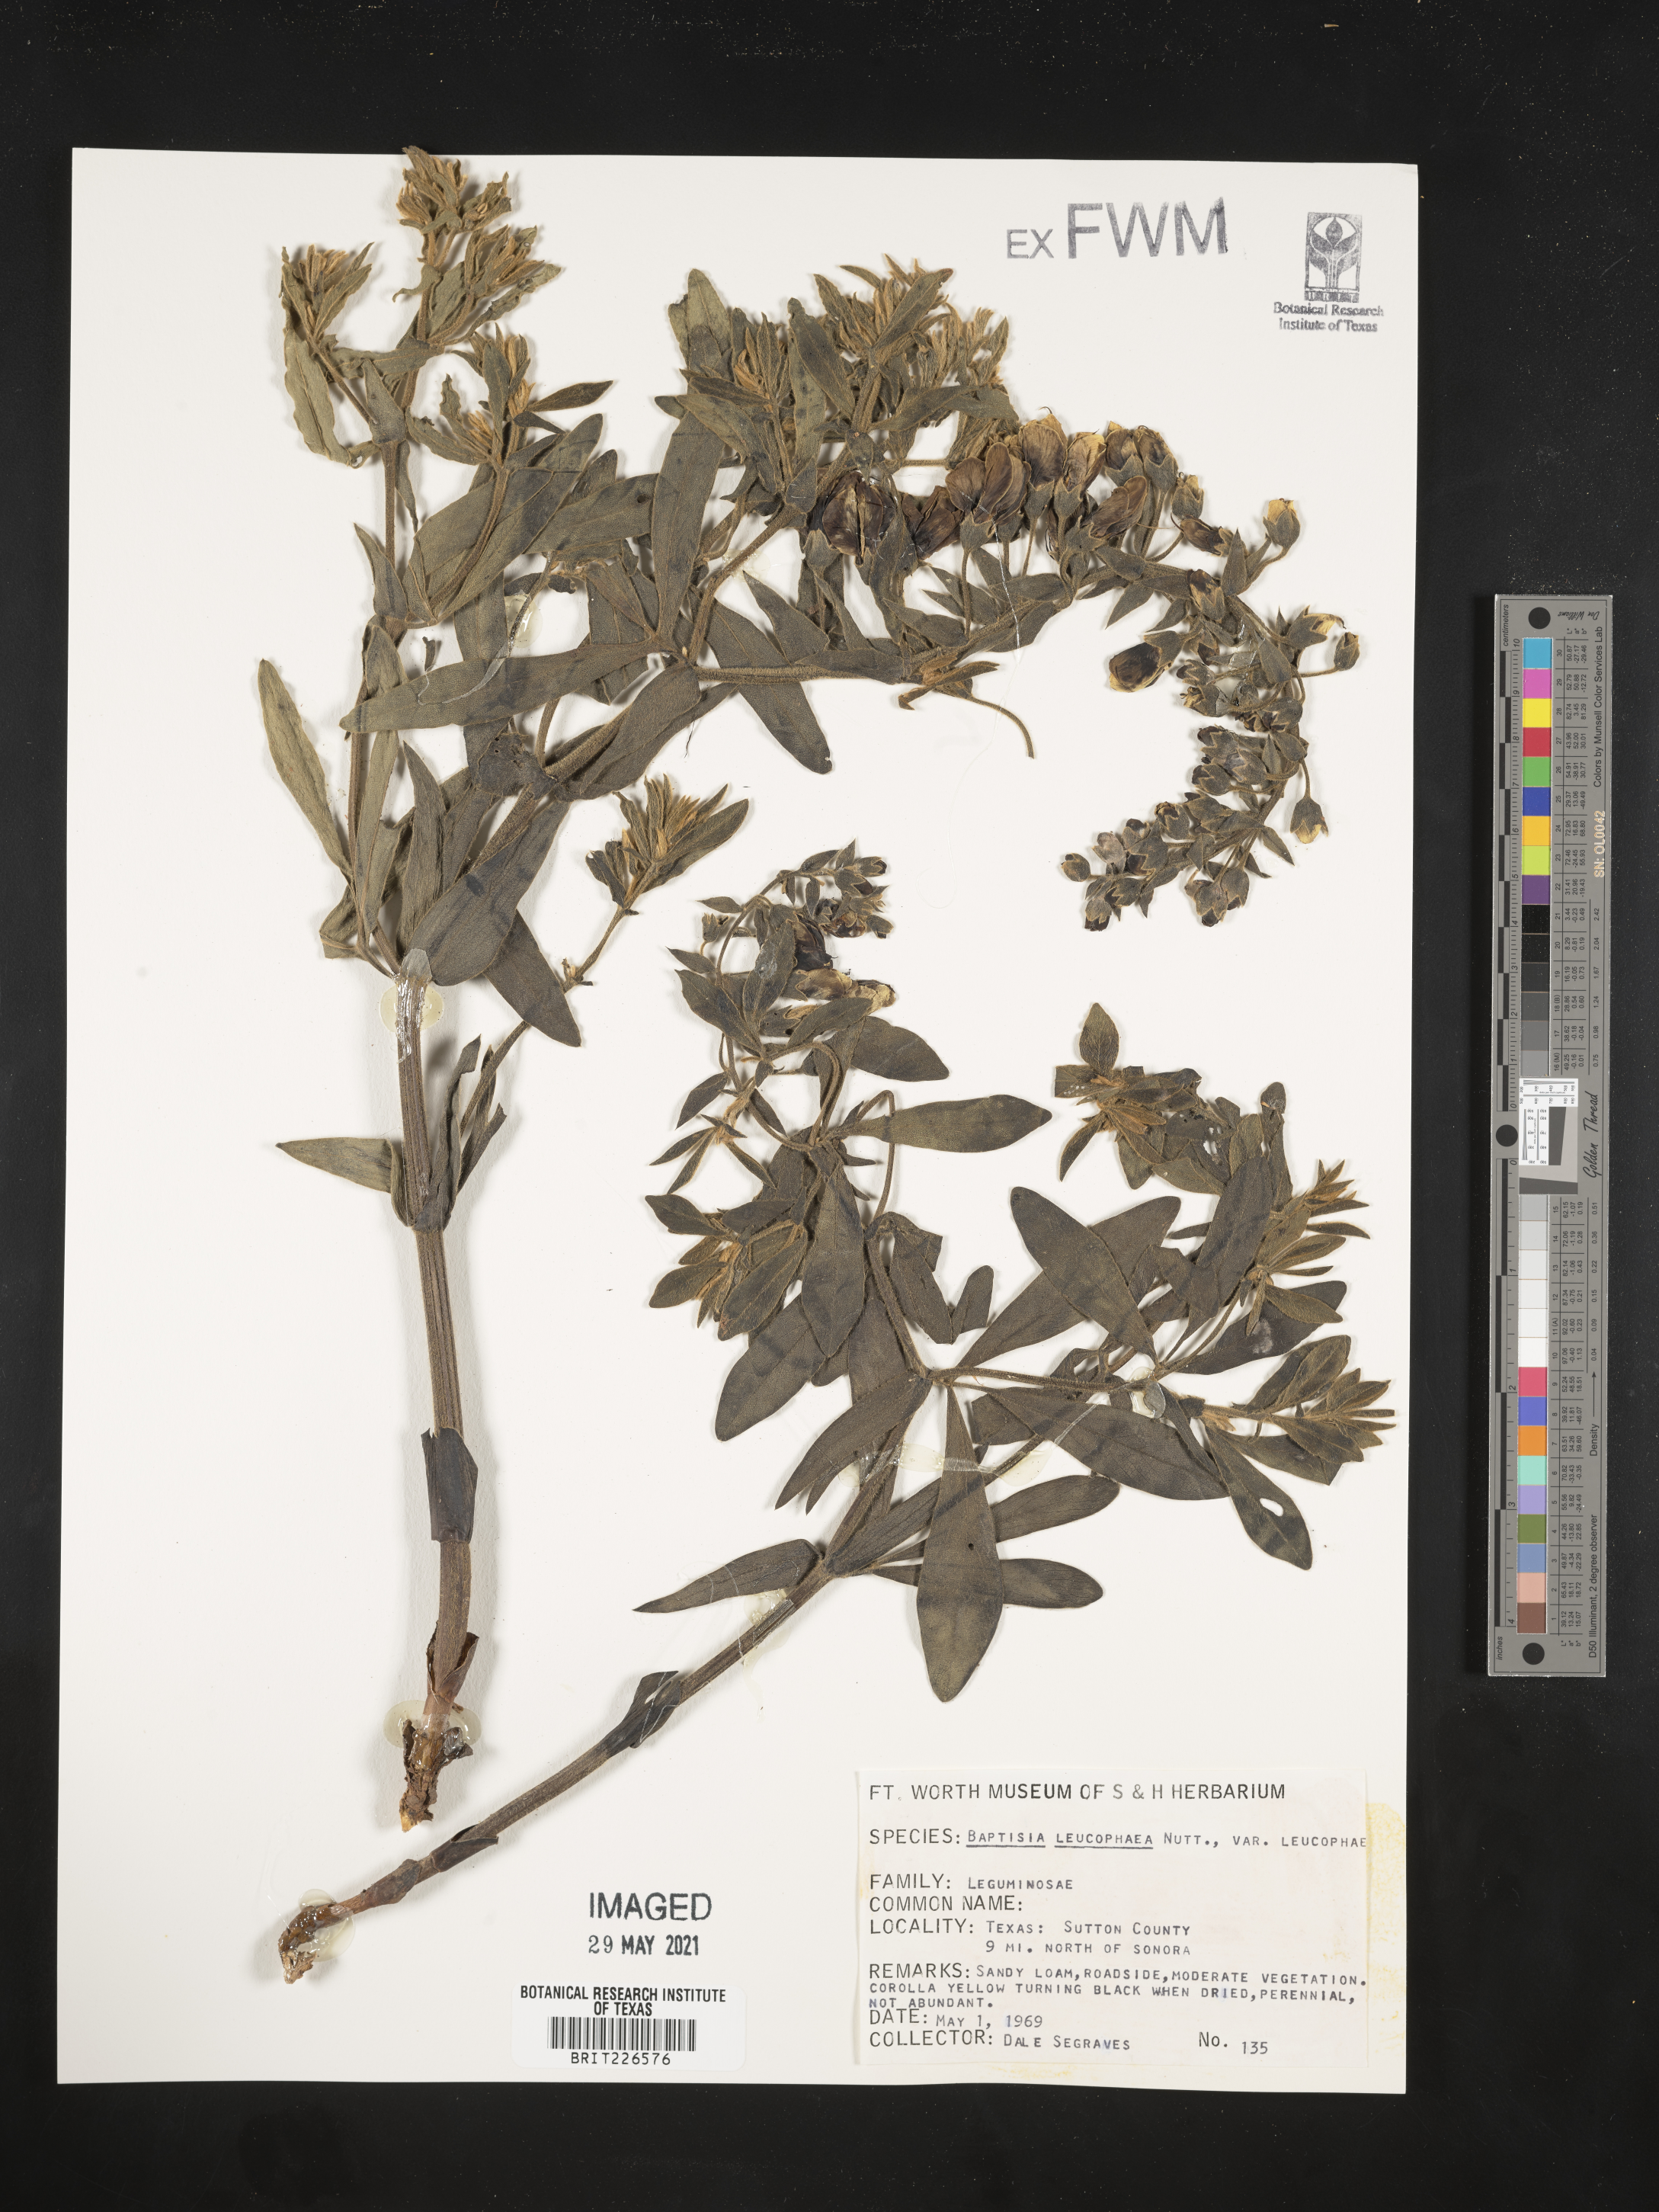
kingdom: Plantae
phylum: Tracheophyta
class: Magnoliopsida
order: Fabales
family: Fabaceae
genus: Baptisia
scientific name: Baptisia bracteata
